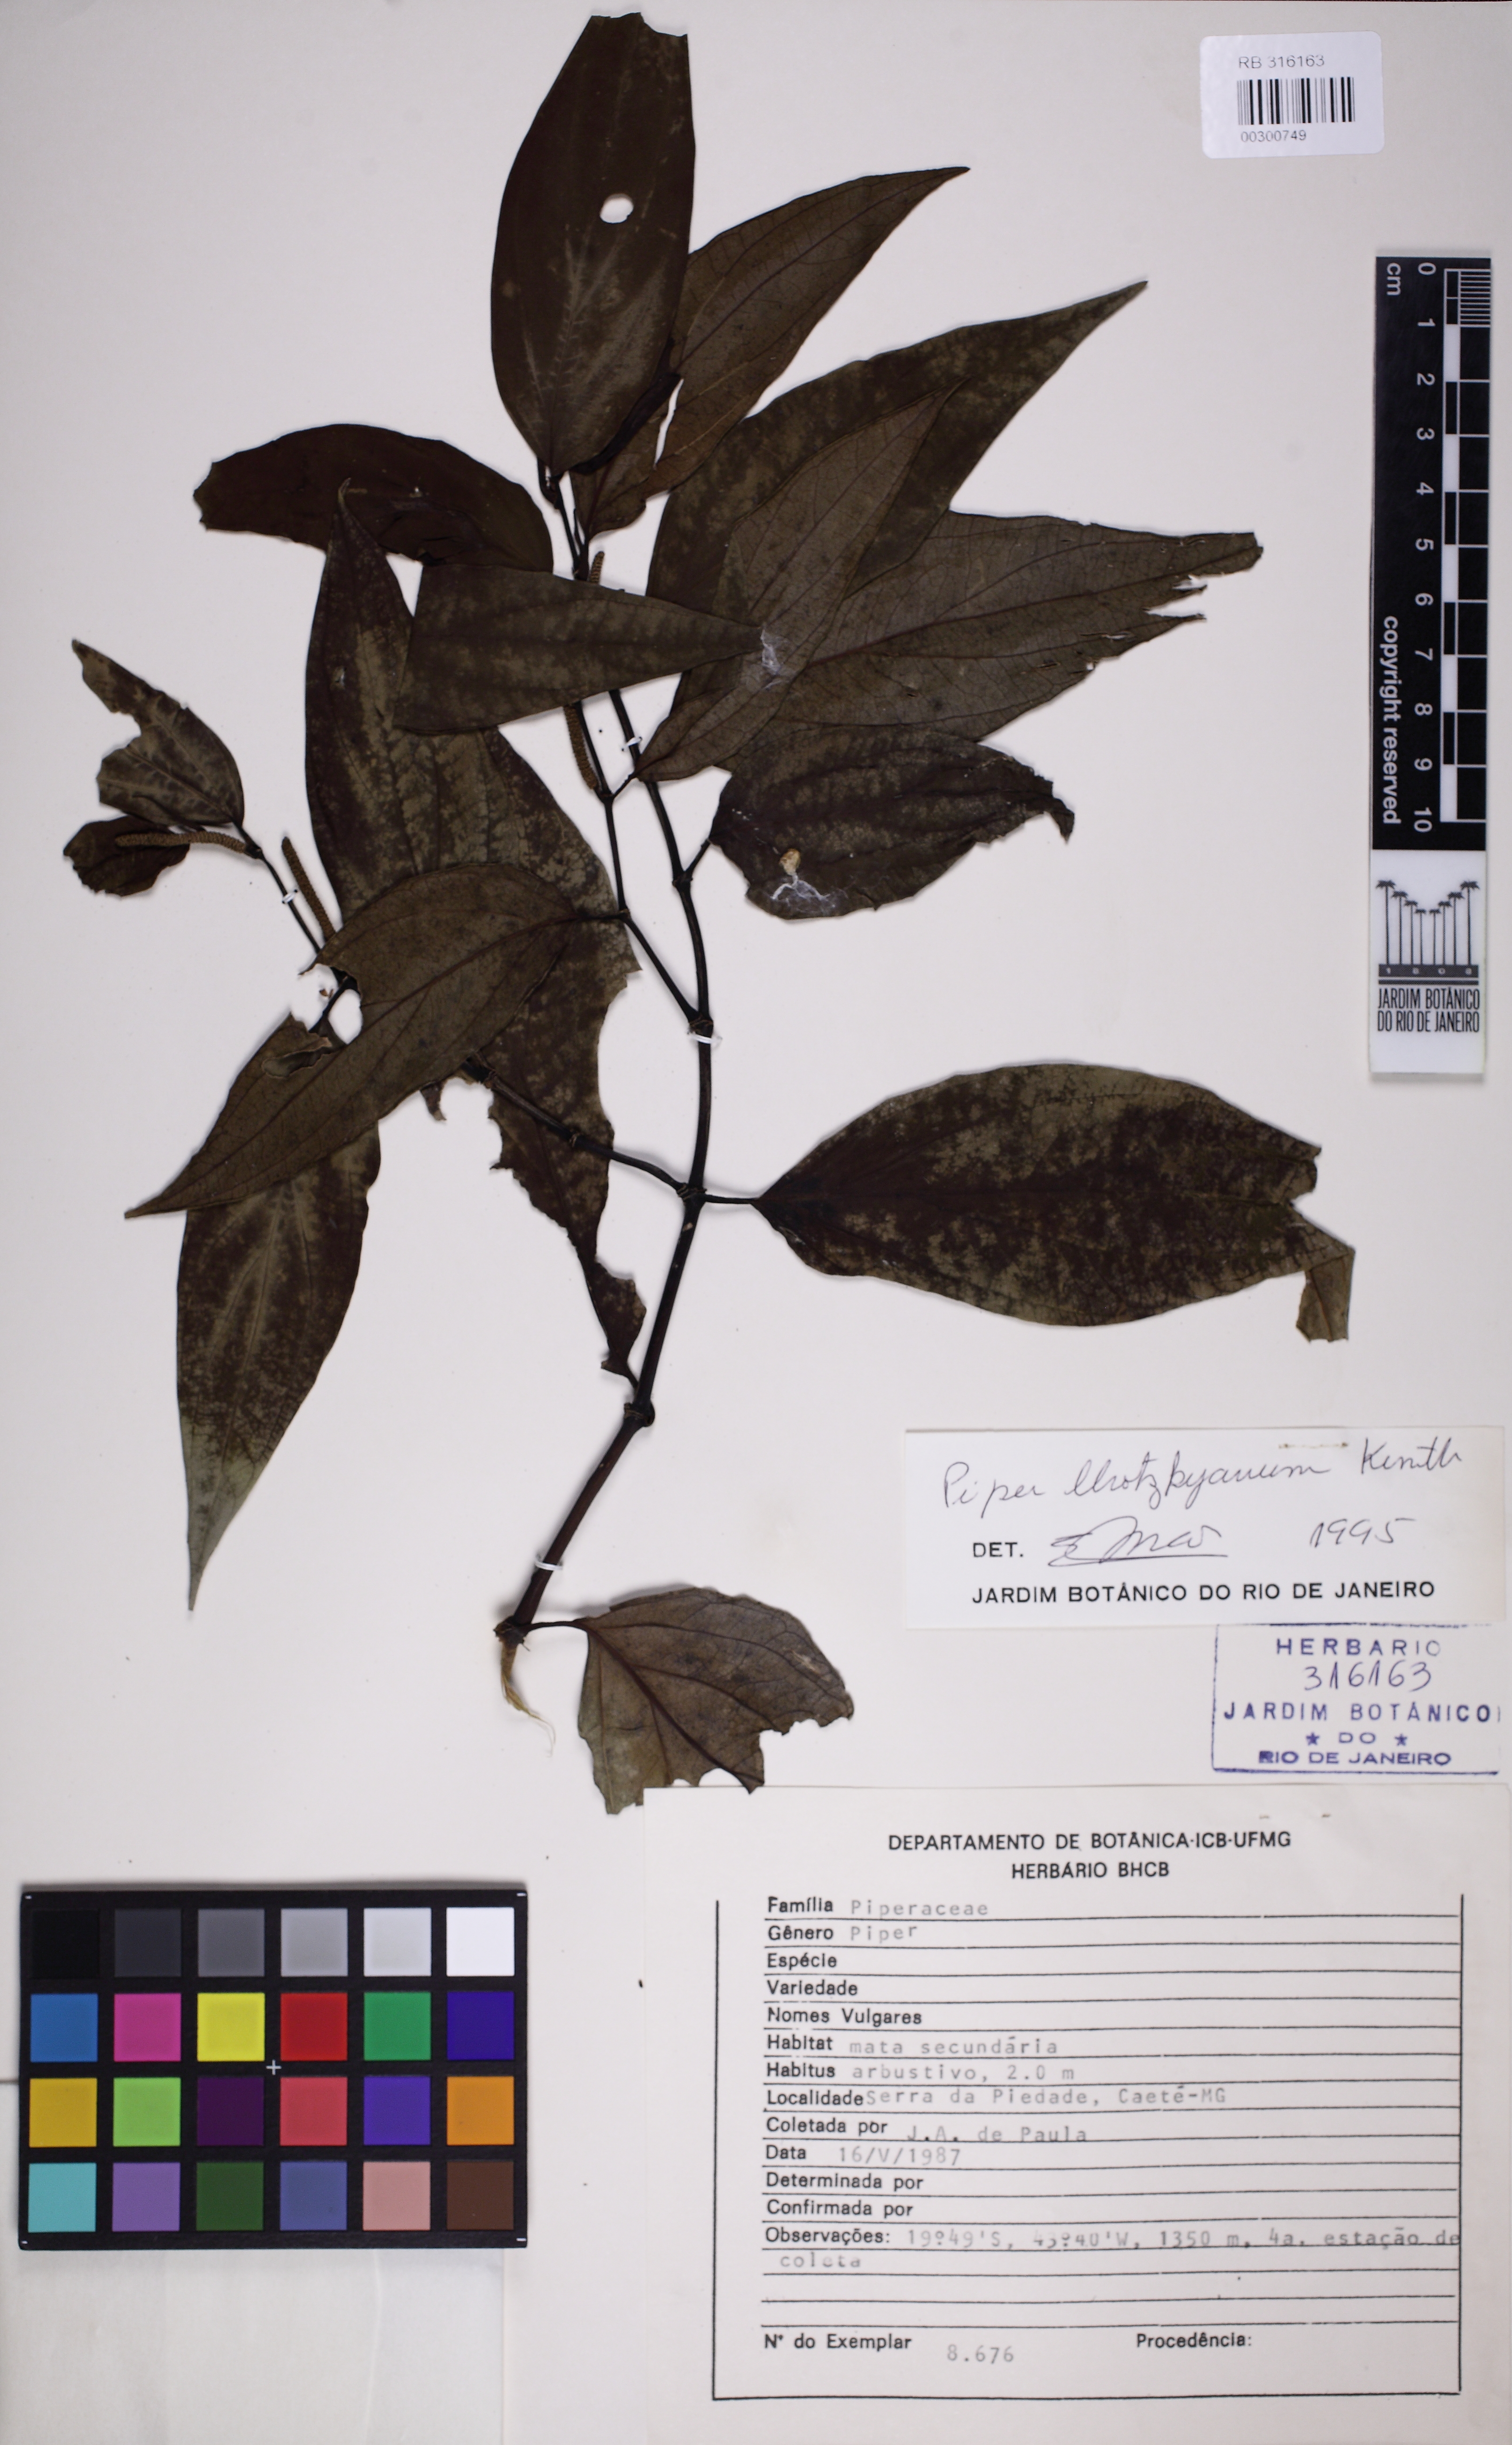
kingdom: Plantae
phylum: Tracheophyta
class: Magnoliopsida
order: Piperales
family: Piperaceae
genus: Piper
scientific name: Piper lhotzkyanum
